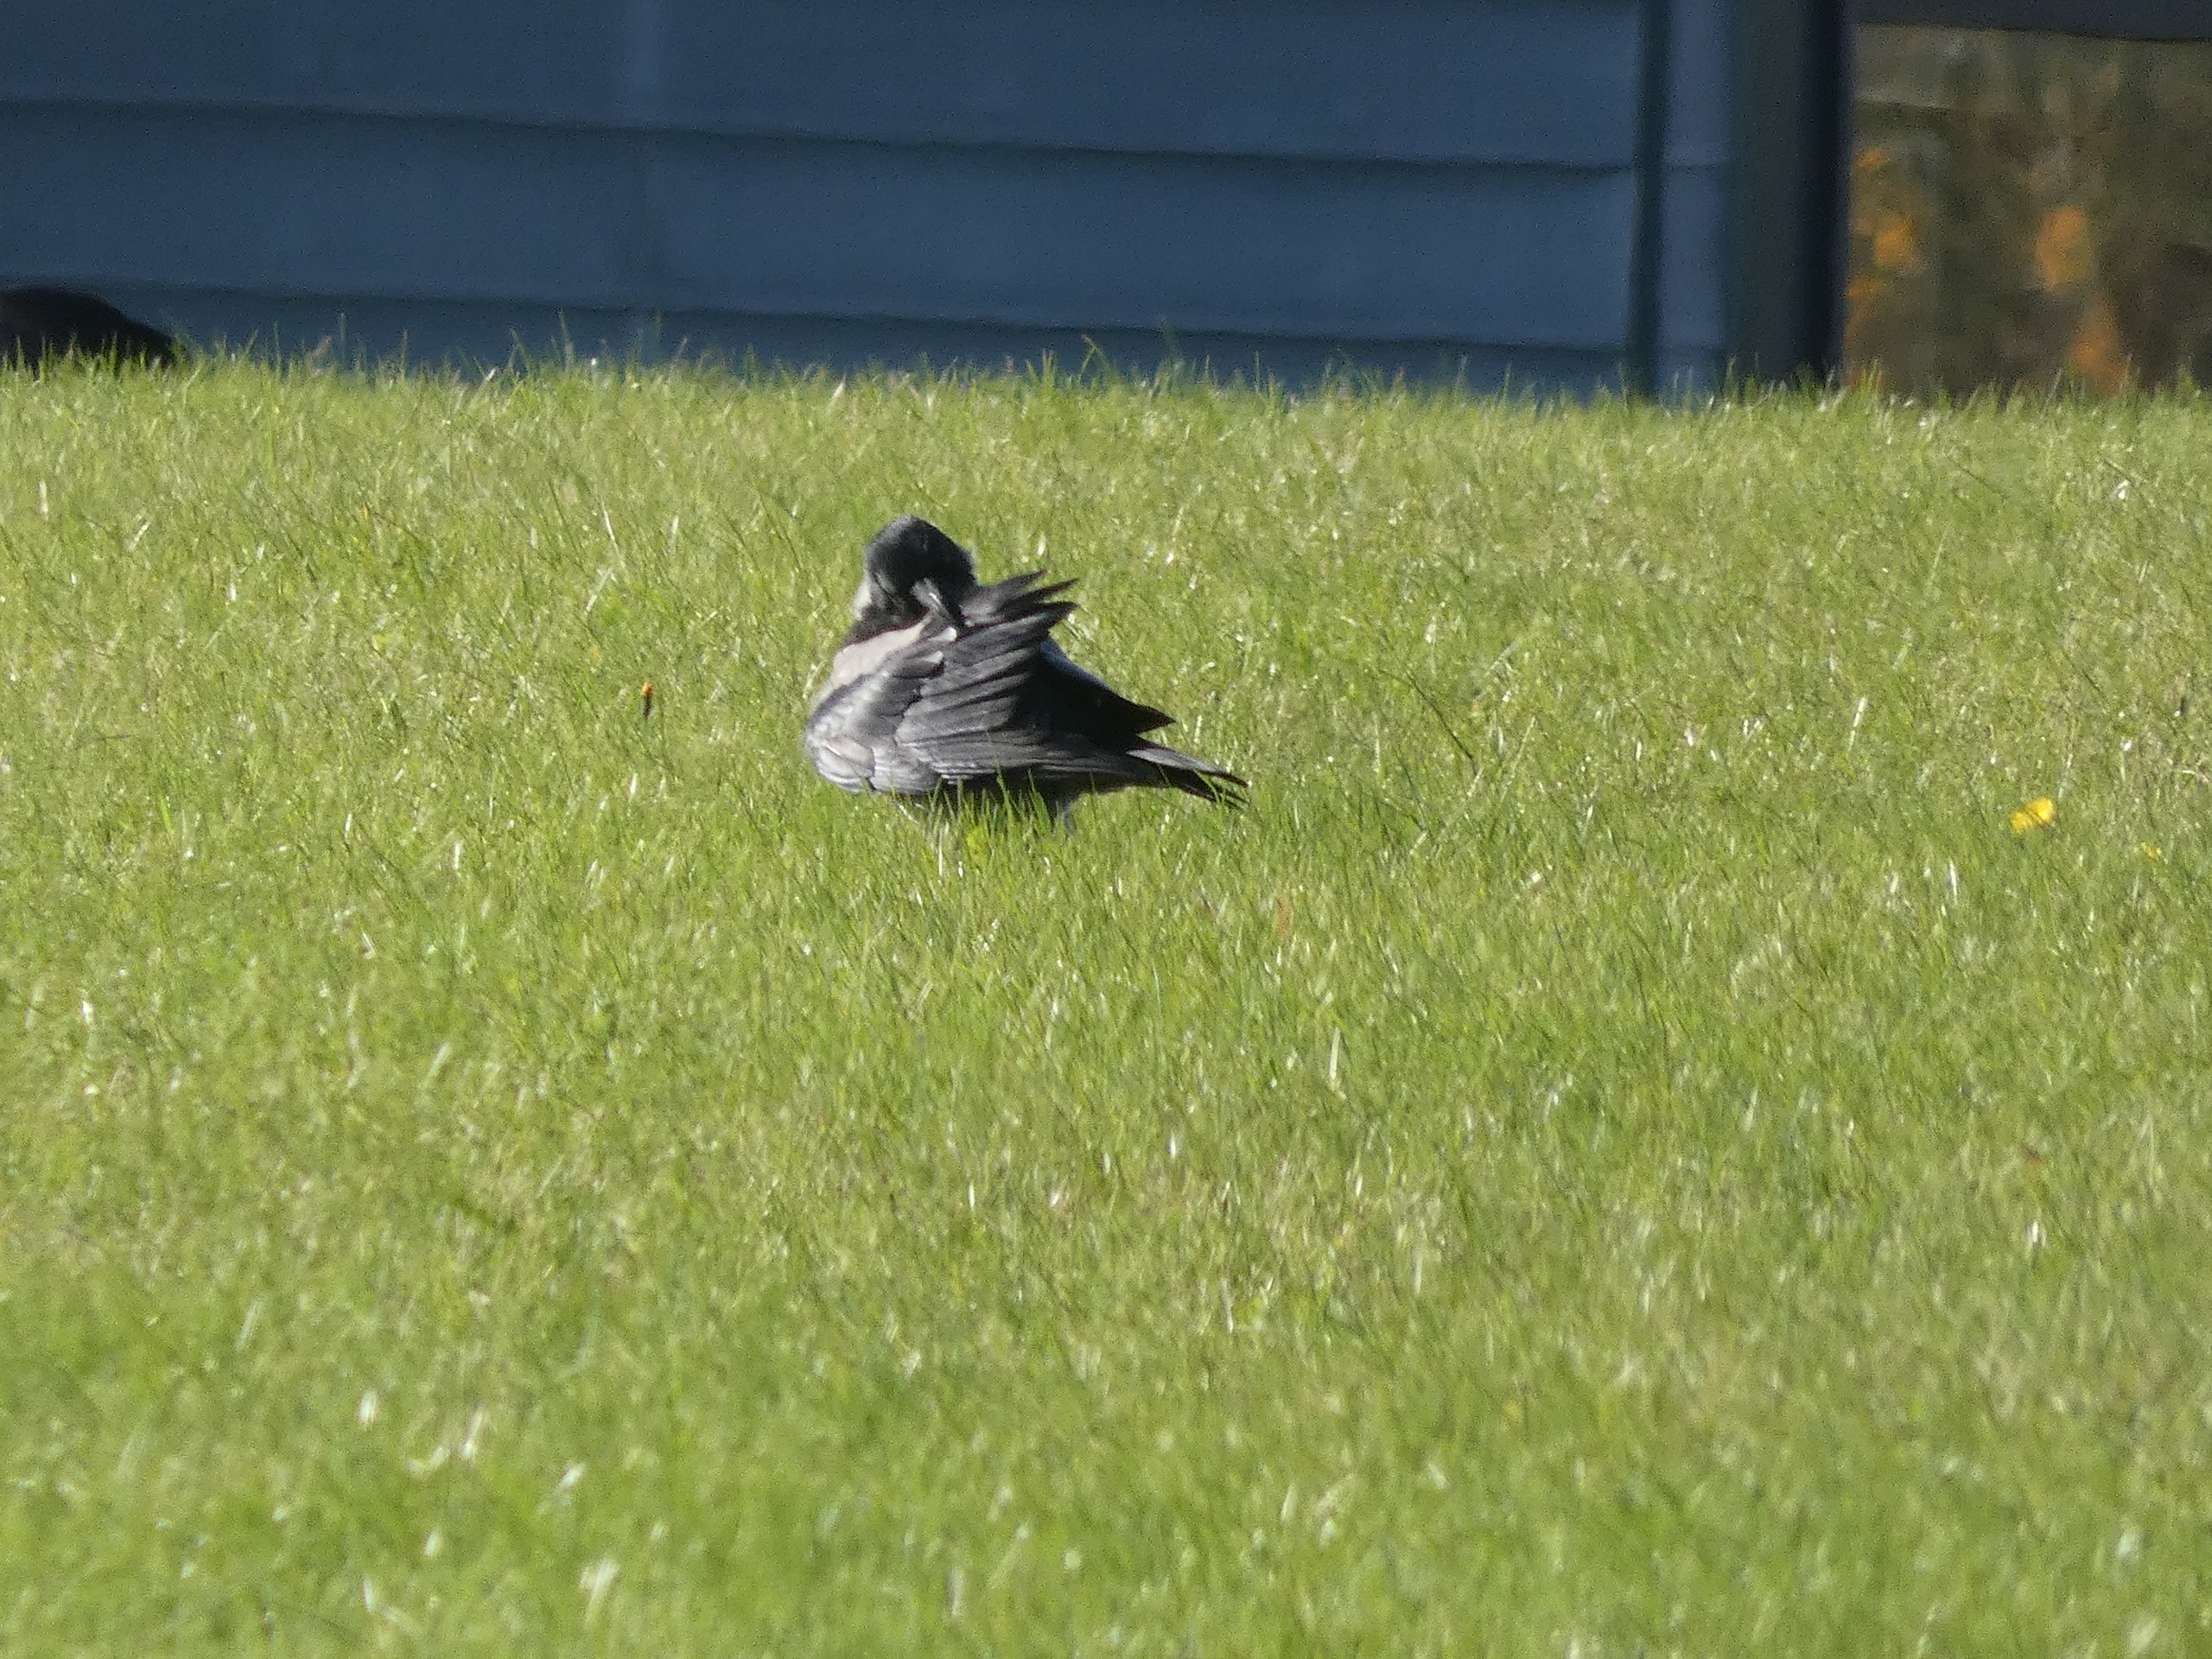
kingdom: Animalia
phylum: Chordata
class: Aves
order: Passeriformes
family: Corvidae
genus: Corvus
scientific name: Corvus cornix
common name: Gråkrage
